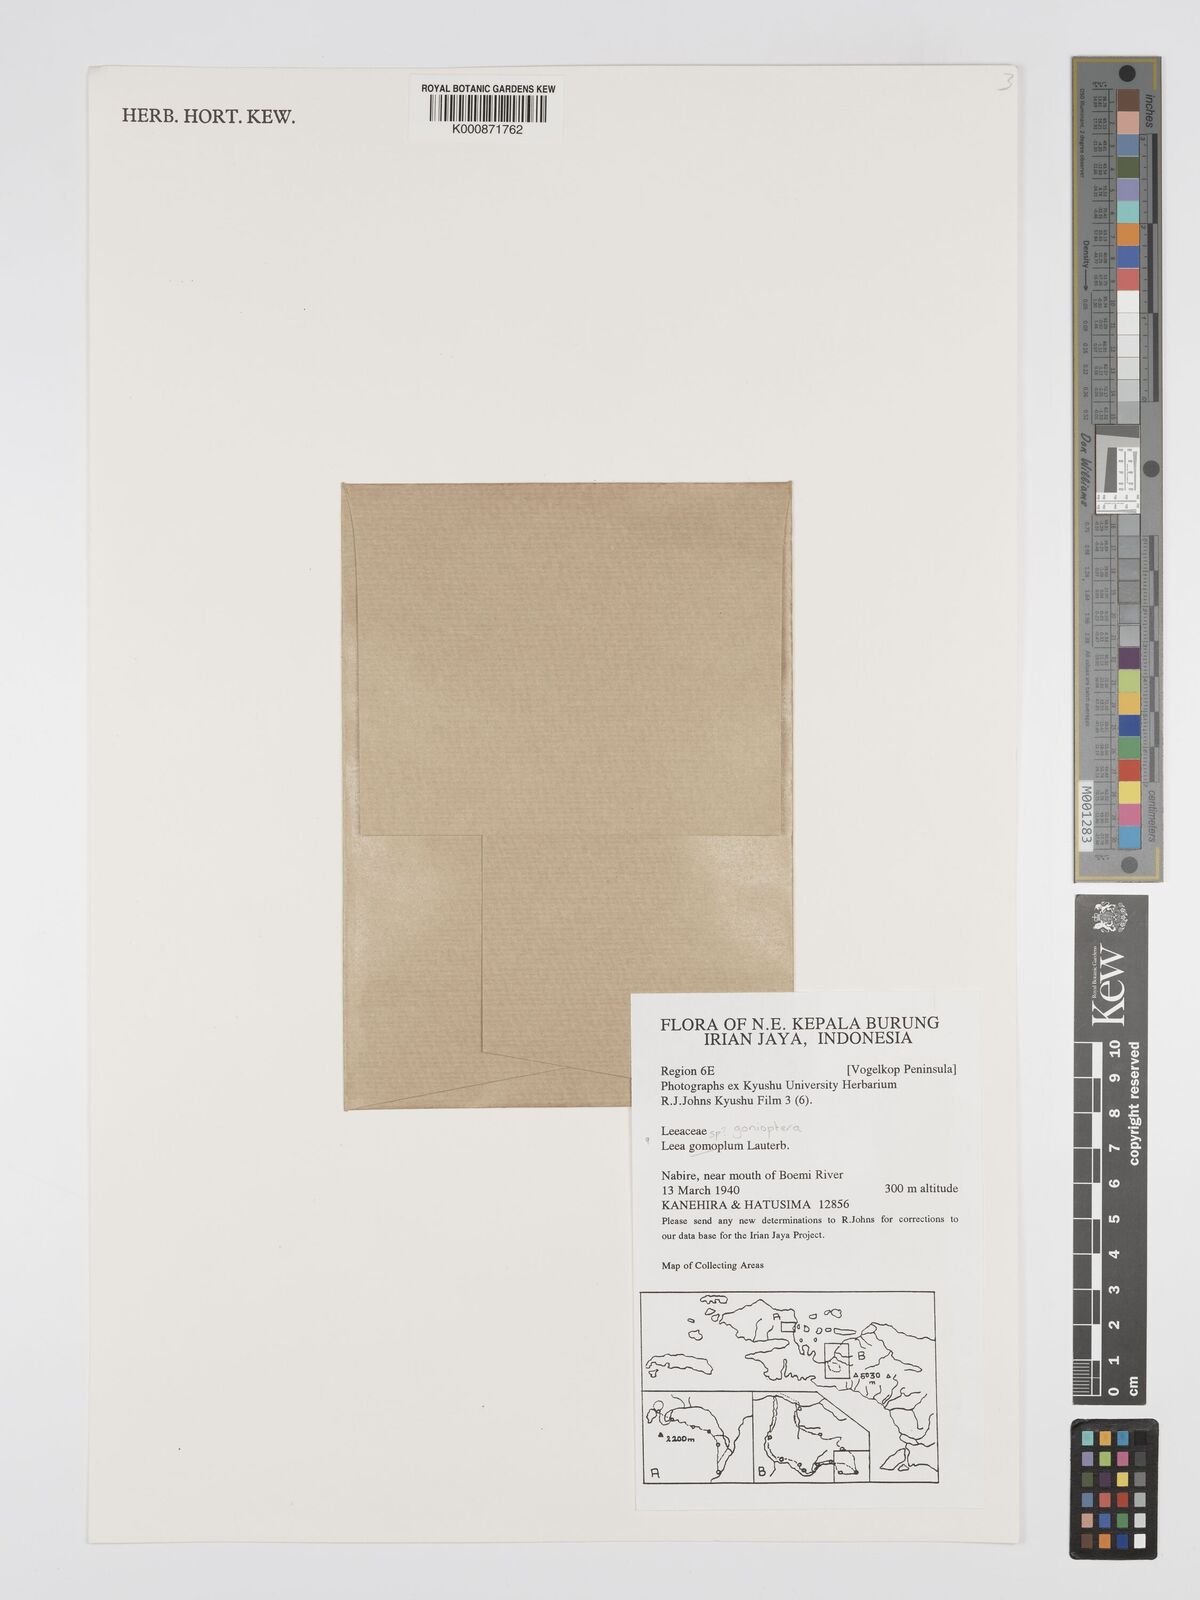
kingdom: Plantae
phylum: Tracheophyta
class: Magnoliopsida
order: Vitales
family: Vitaceae
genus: Leea
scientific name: Leea gonioptera
